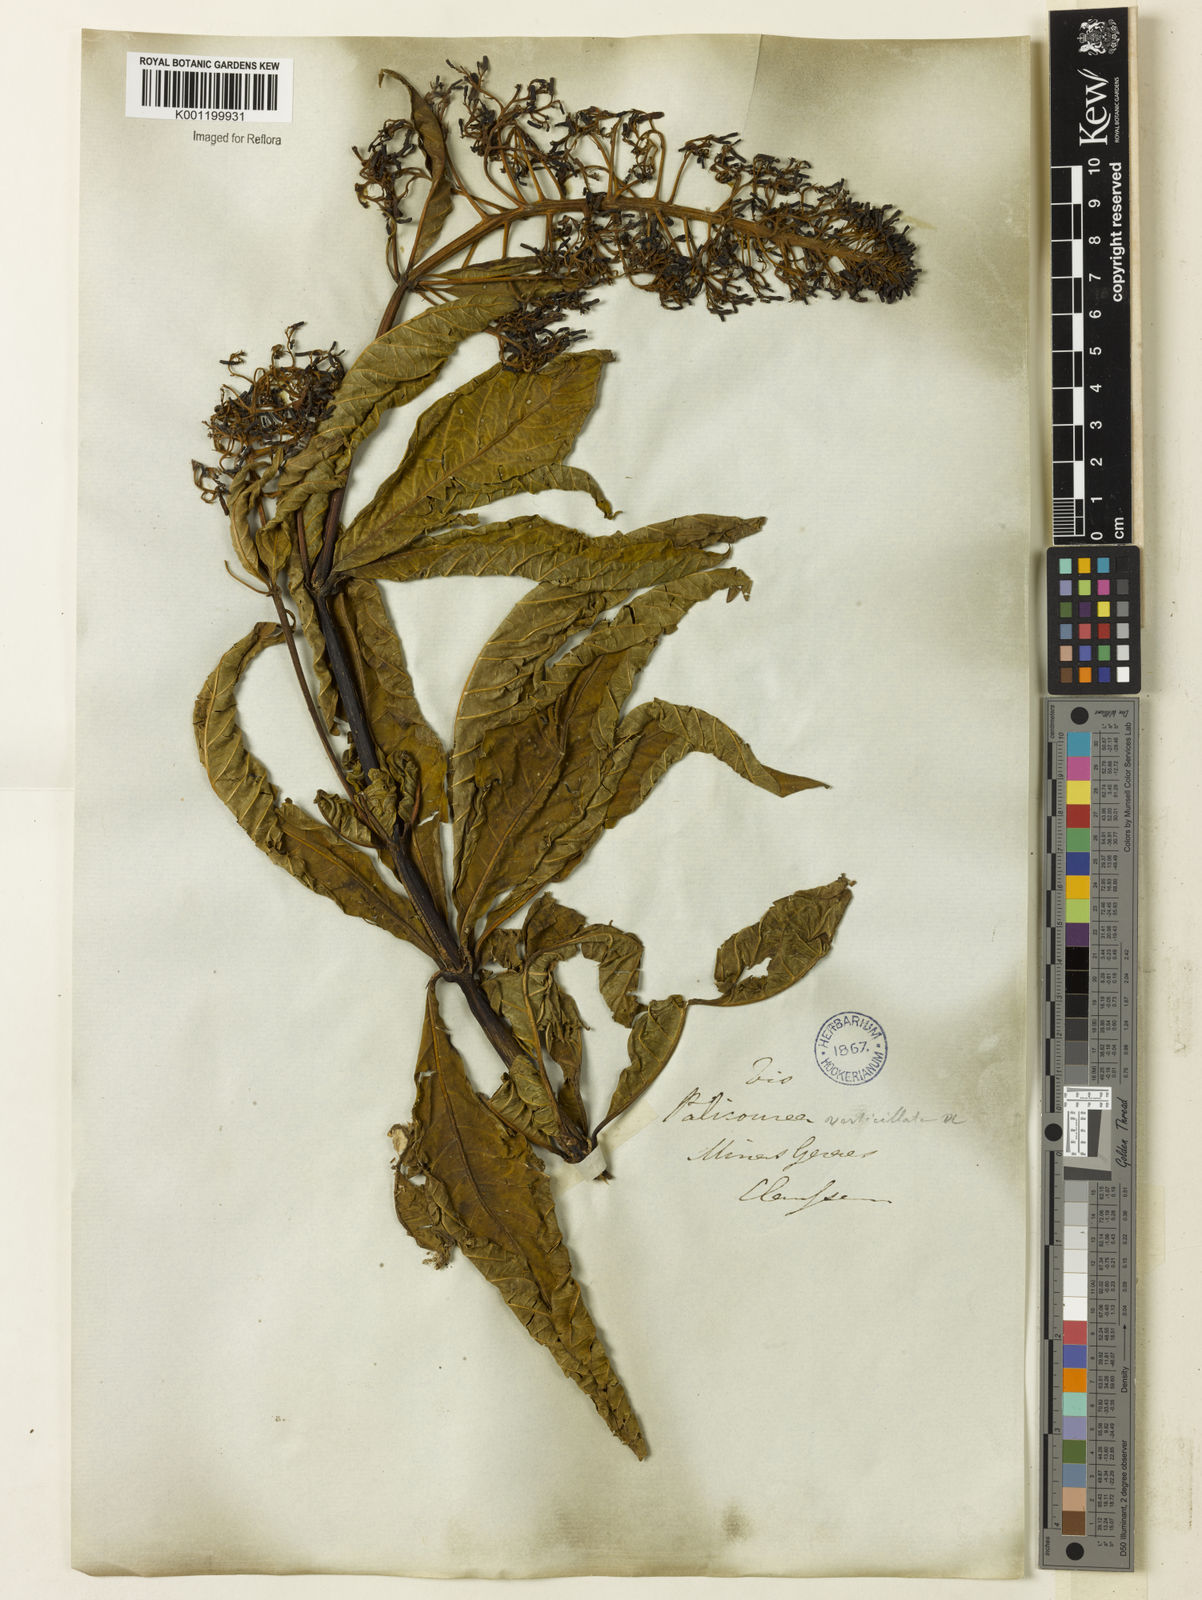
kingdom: Plantae
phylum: Tracheophyta
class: Magnoliopsida
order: Gentianales
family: Rubiaceae
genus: Palicourea
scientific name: Palicourea tetraphylla
